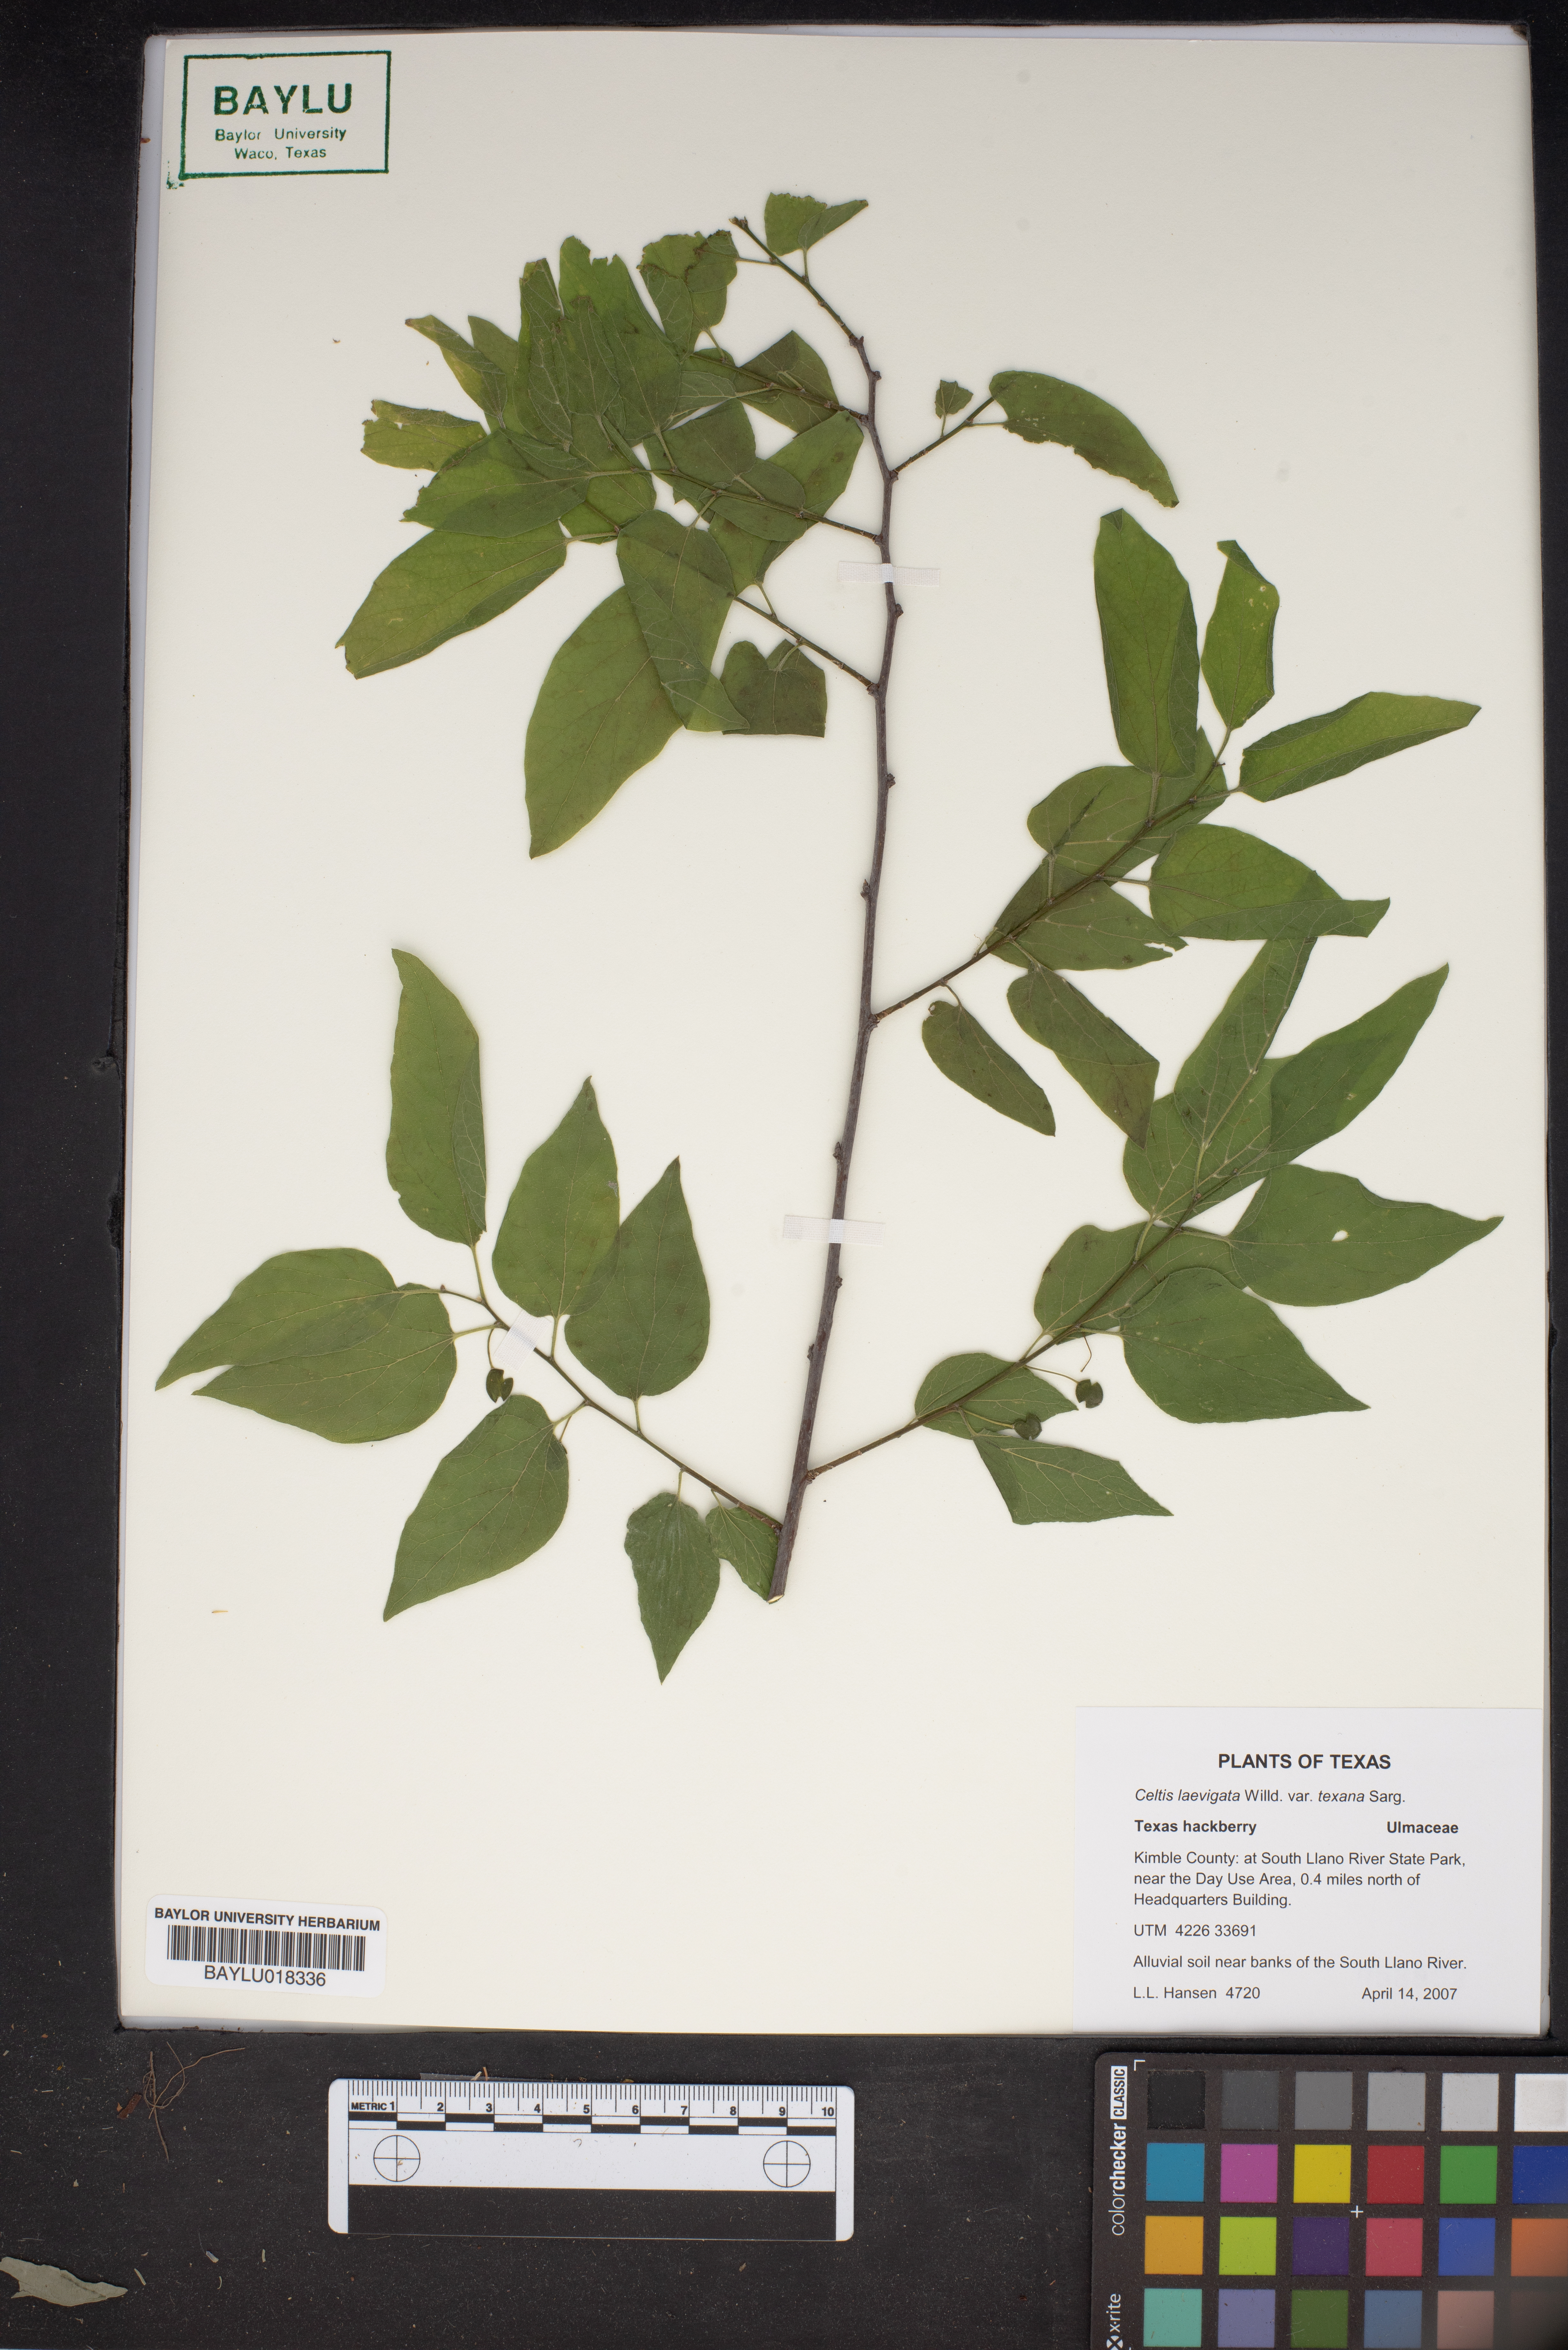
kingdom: Plantae
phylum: Tracheophyta
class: Magnoliopsida
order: Rosales
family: Cannabaceae
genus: Celtis
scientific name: Celtis laevigata
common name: Sugarberry
